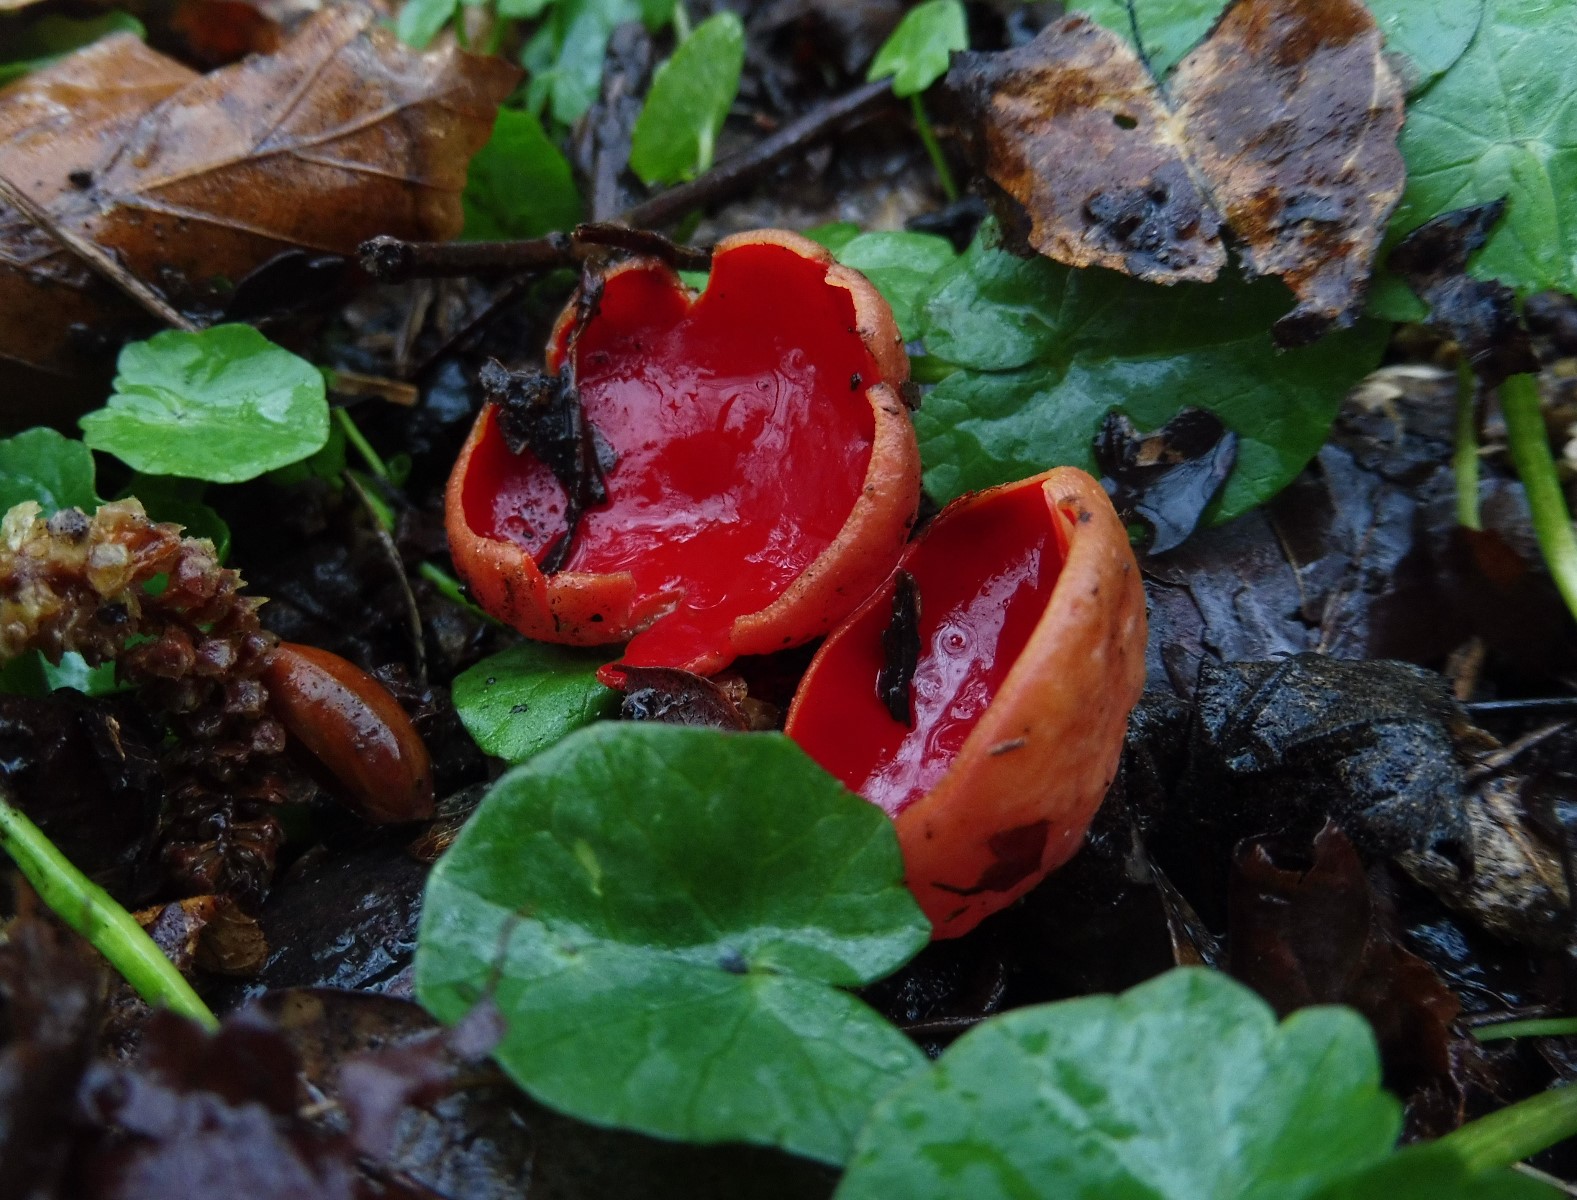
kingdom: Fungi
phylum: Ascomycota
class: Pezizomycetes
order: Pezizales
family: Sarcoscyphaceae
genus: Sarcoscypha
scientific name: Sarcoscypha austriaca
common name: krølhåret pragtbæger
